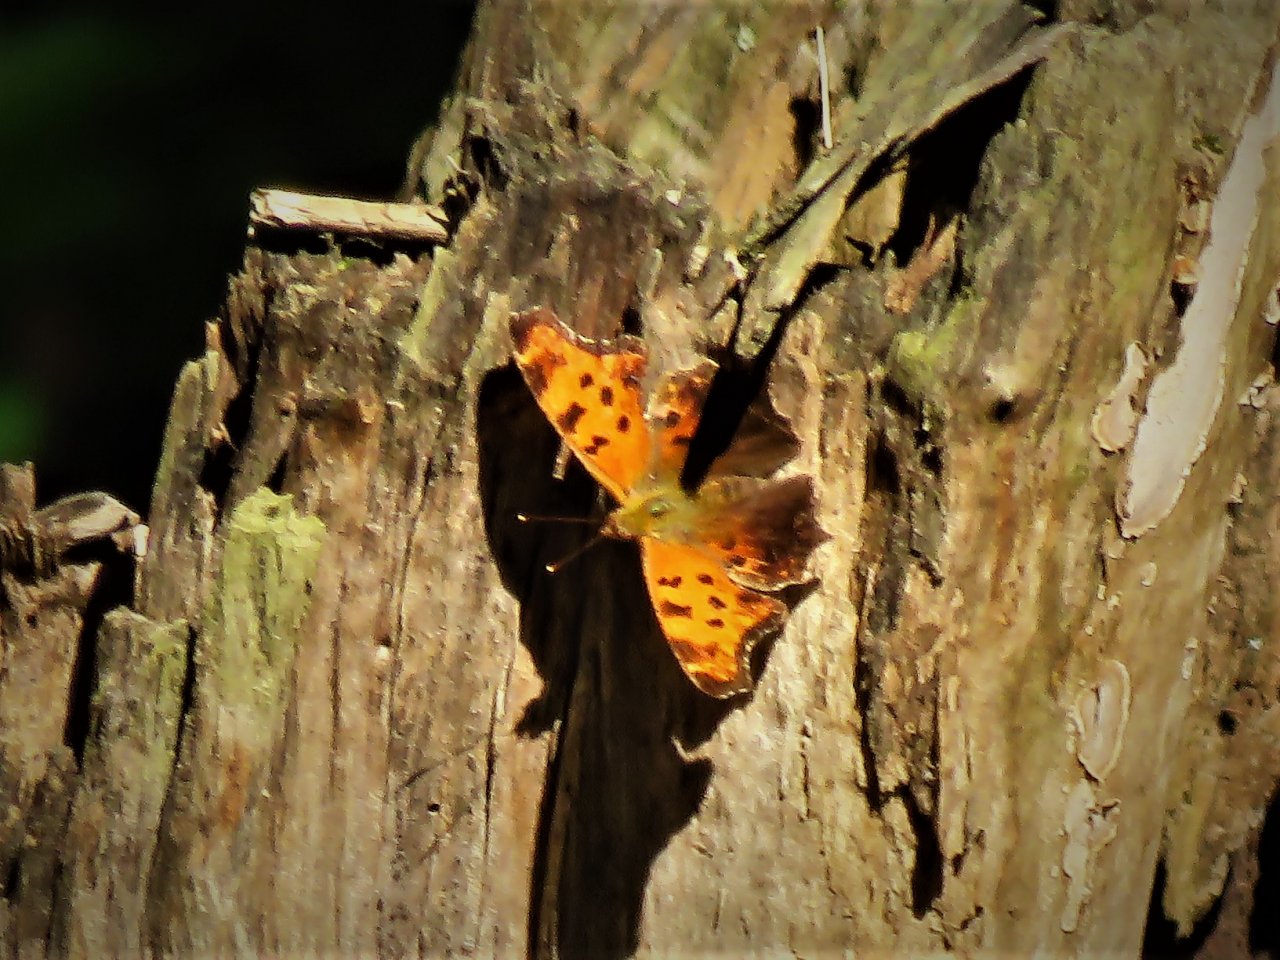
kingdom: Animalia
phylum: Arthropoda
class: Insecta
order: Lepidoptera
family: Nymphalidae
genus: Polygonia
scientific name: Polygonia comma
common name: Eastern Comma
